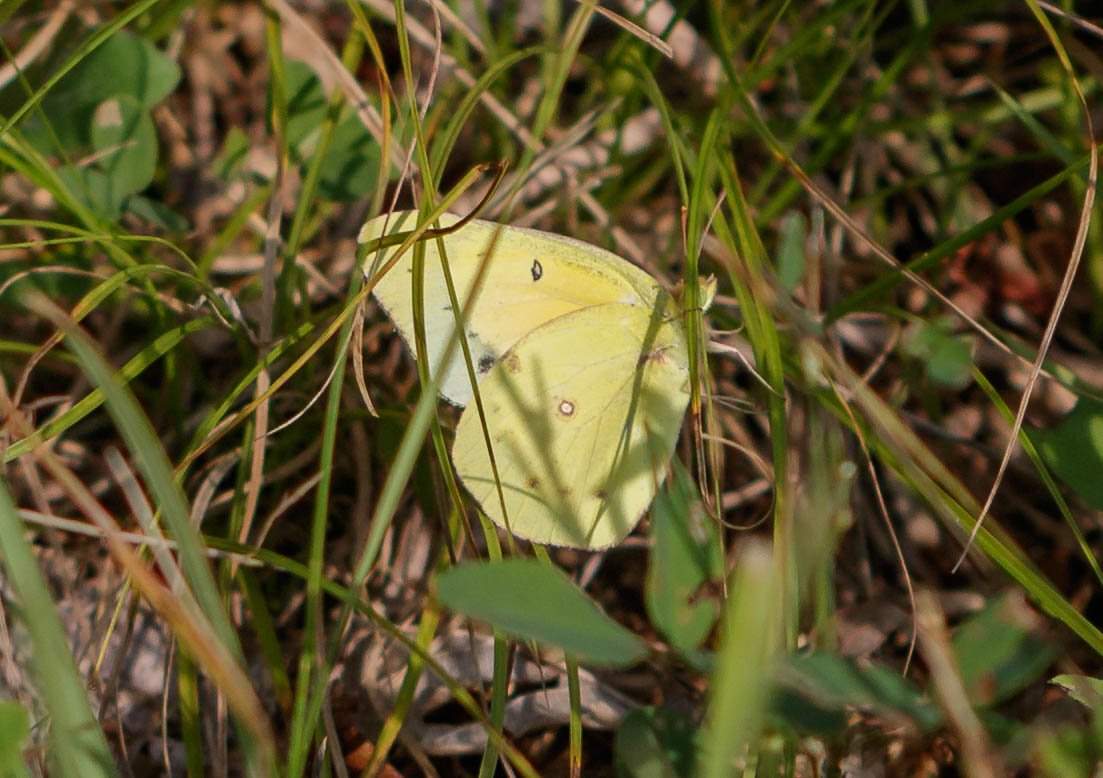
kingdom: Animalia
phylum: Arthropoda
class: Insecta
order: Lepidoptera
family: Pieridae
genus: Colias
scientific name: Colias philodice
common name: Clouded Sulphur
